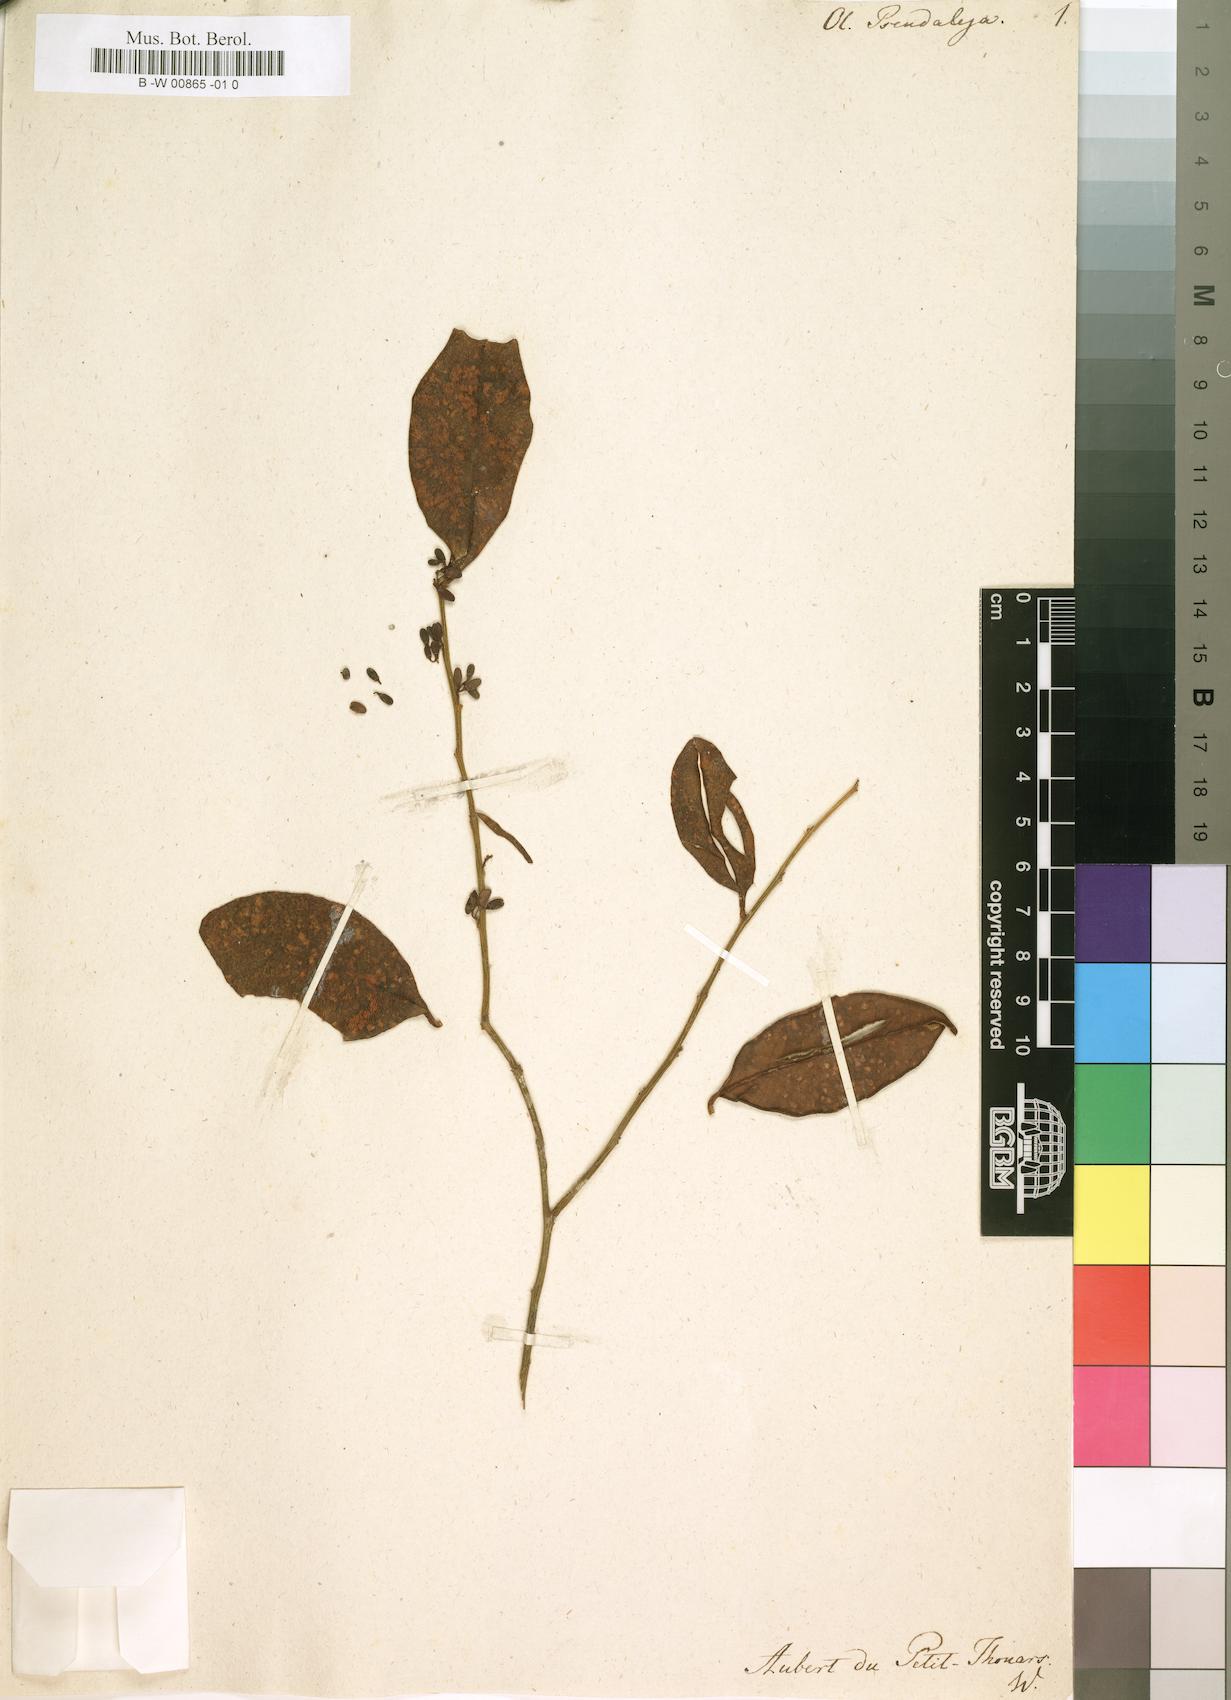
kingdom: Plantae
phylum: Tracheophyta
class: Magnoliopsida
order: Santalales
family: Olacaceae
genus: Olax
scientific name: Olax madagascariensis
